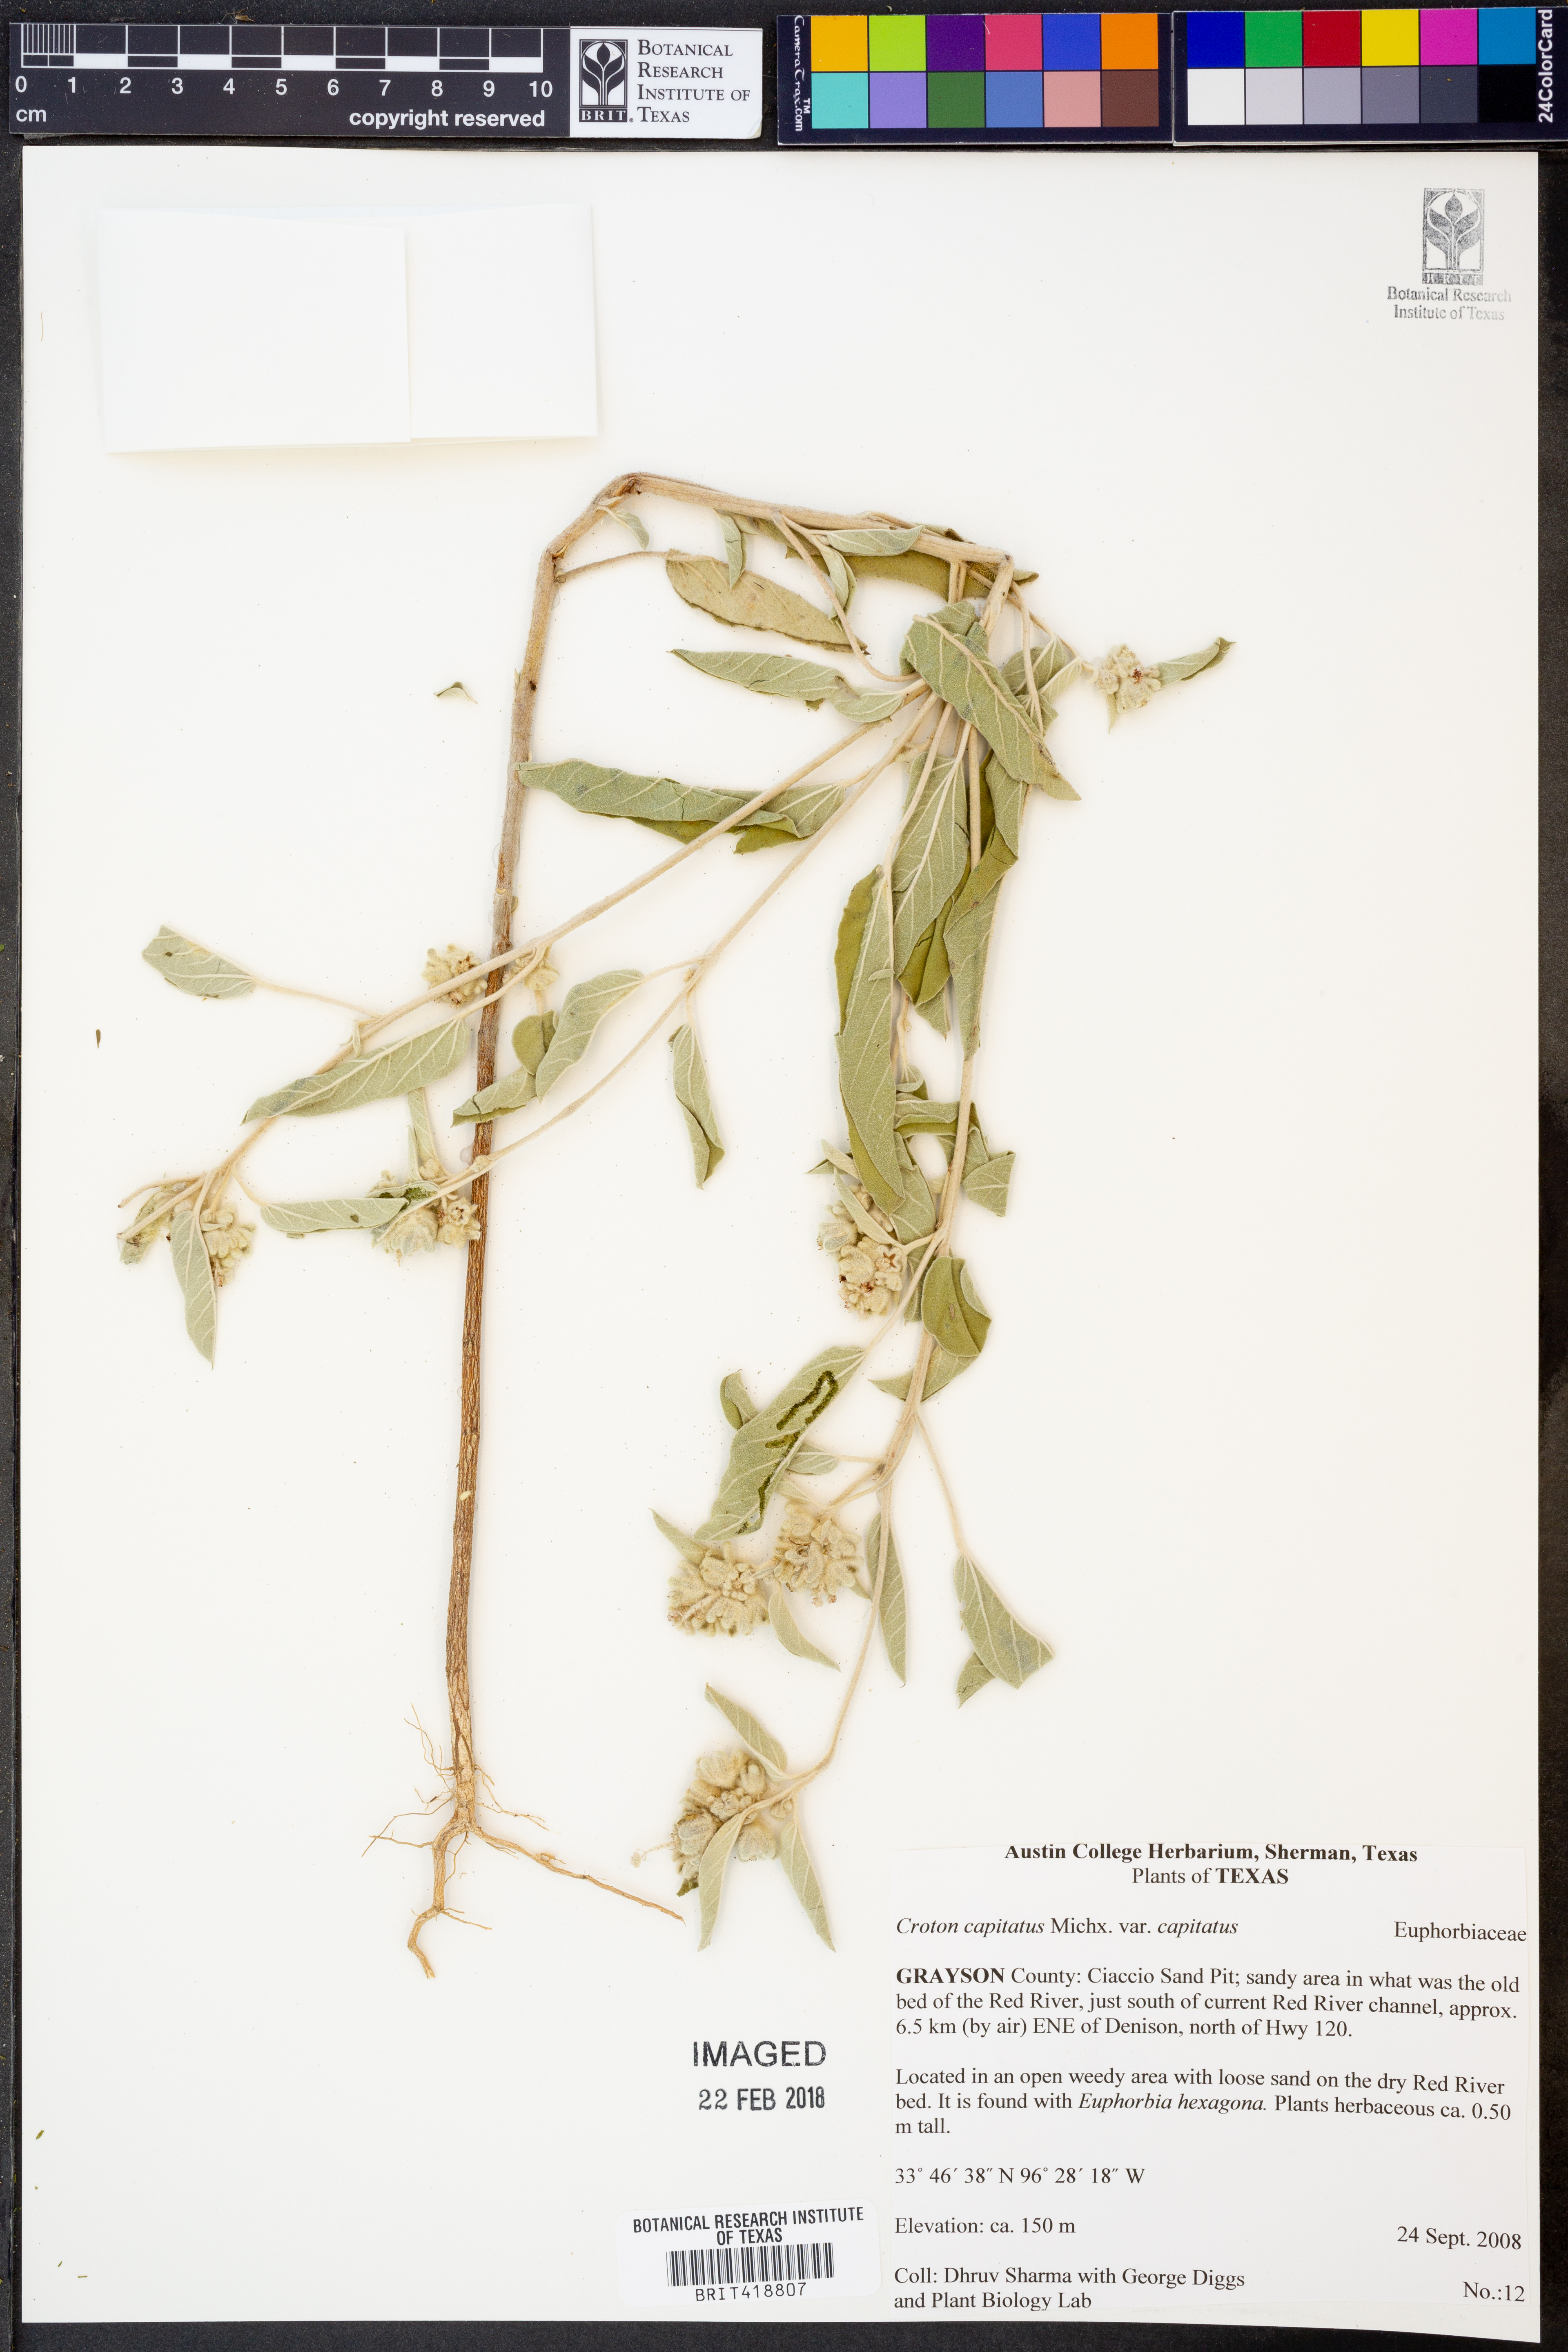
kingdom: Plantae
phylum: Tracheophyta
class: Magnoliopsida
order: Malpighiales
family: Euphorbiaceae
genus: Croton
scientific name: Croton capitatus
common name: Woolly croton
